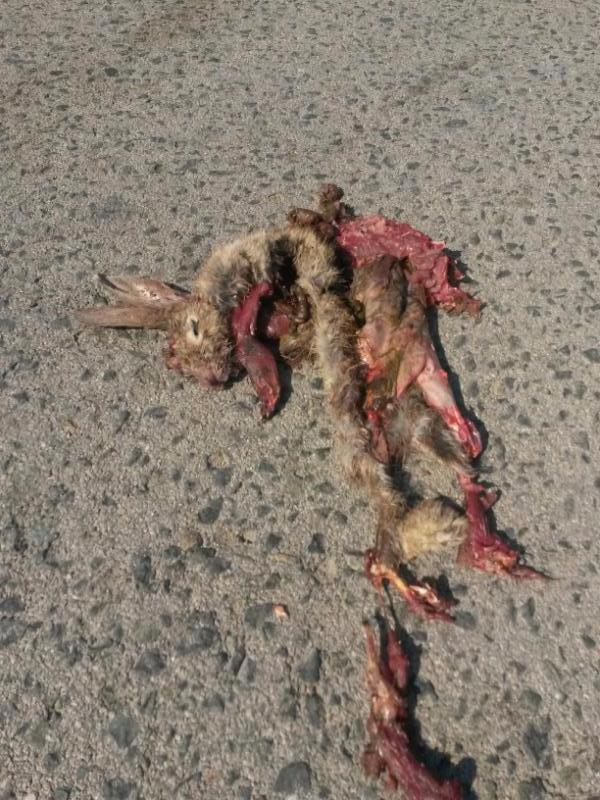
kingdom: Animalia
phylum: Chordata
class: Mammalia
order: Lagomorpha
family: Leporidae
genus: Oryctolagus
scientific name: Oryctolagus cuniculus
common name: European rabbit
